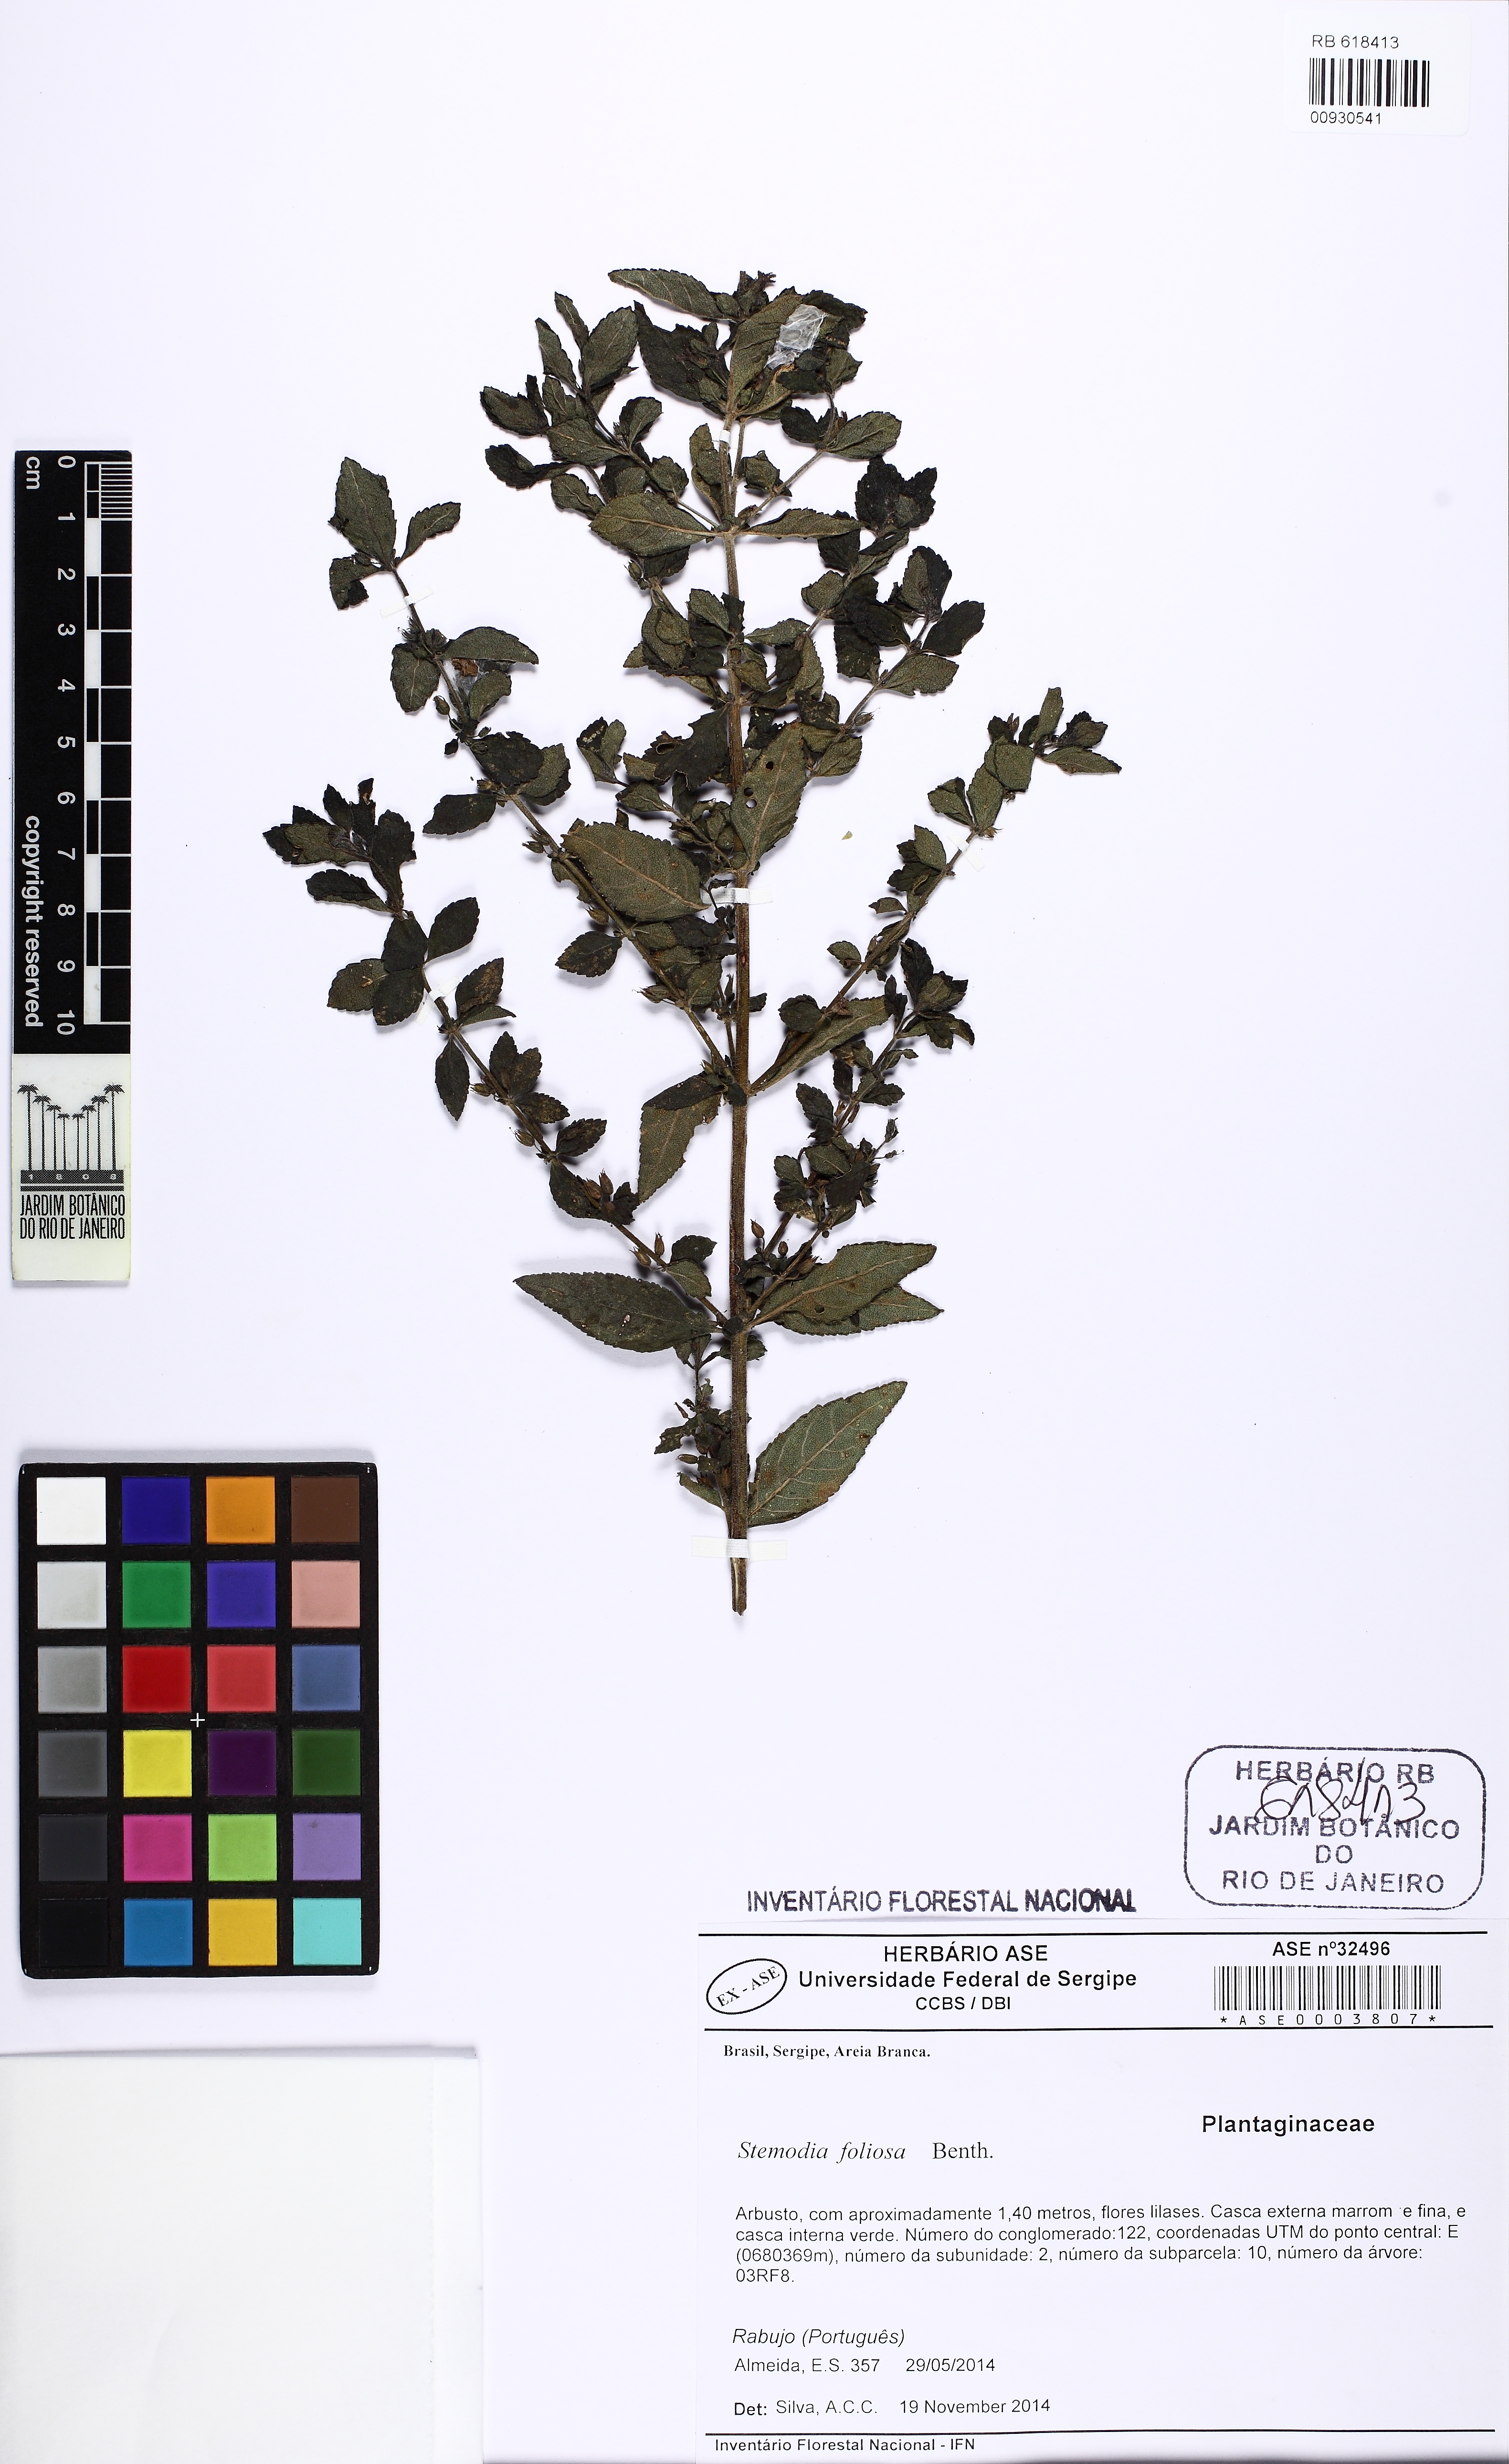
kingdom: Plantae
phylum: Tracheophyta
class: Magnoliopsida
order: Lamiales
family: Plantaginaceae
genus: Stemodia
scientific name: Stemodia foliosa
